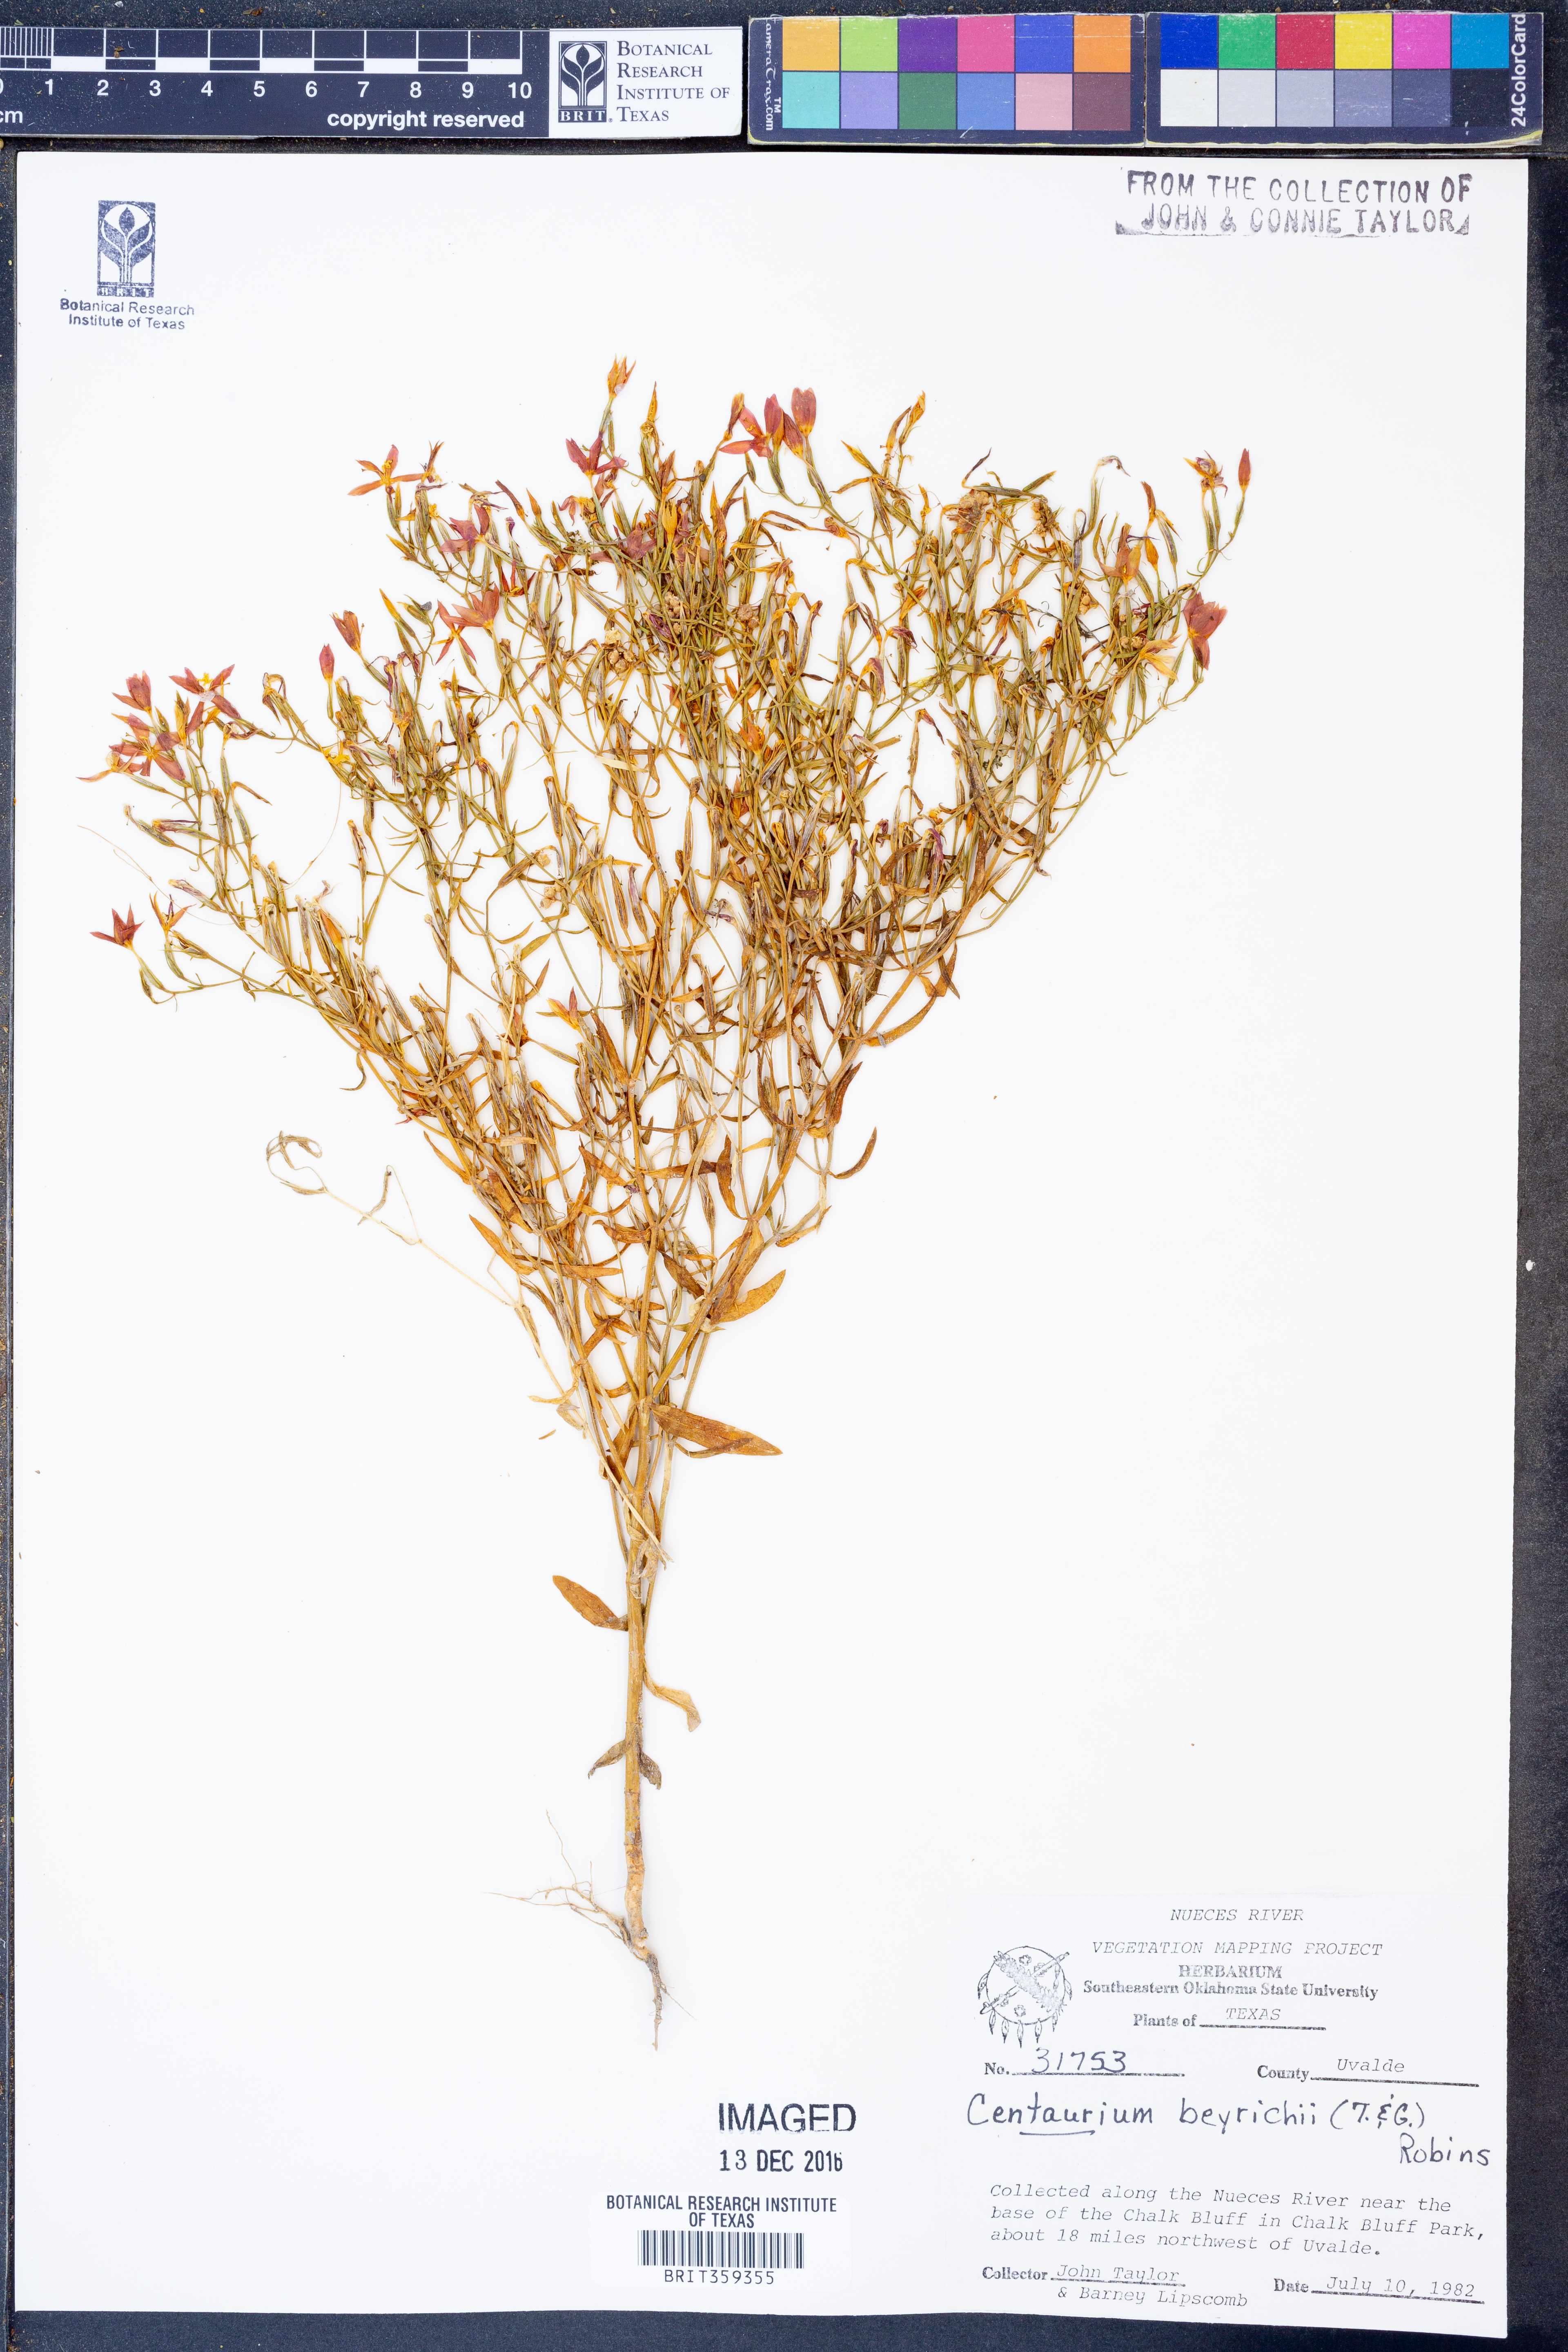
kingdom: Plantae
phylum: Tracheophyta
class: Magnoliopsida
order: Gentianales
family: Gentianaceae
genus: Zeltnera
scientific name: Zeltnera beyrichii
